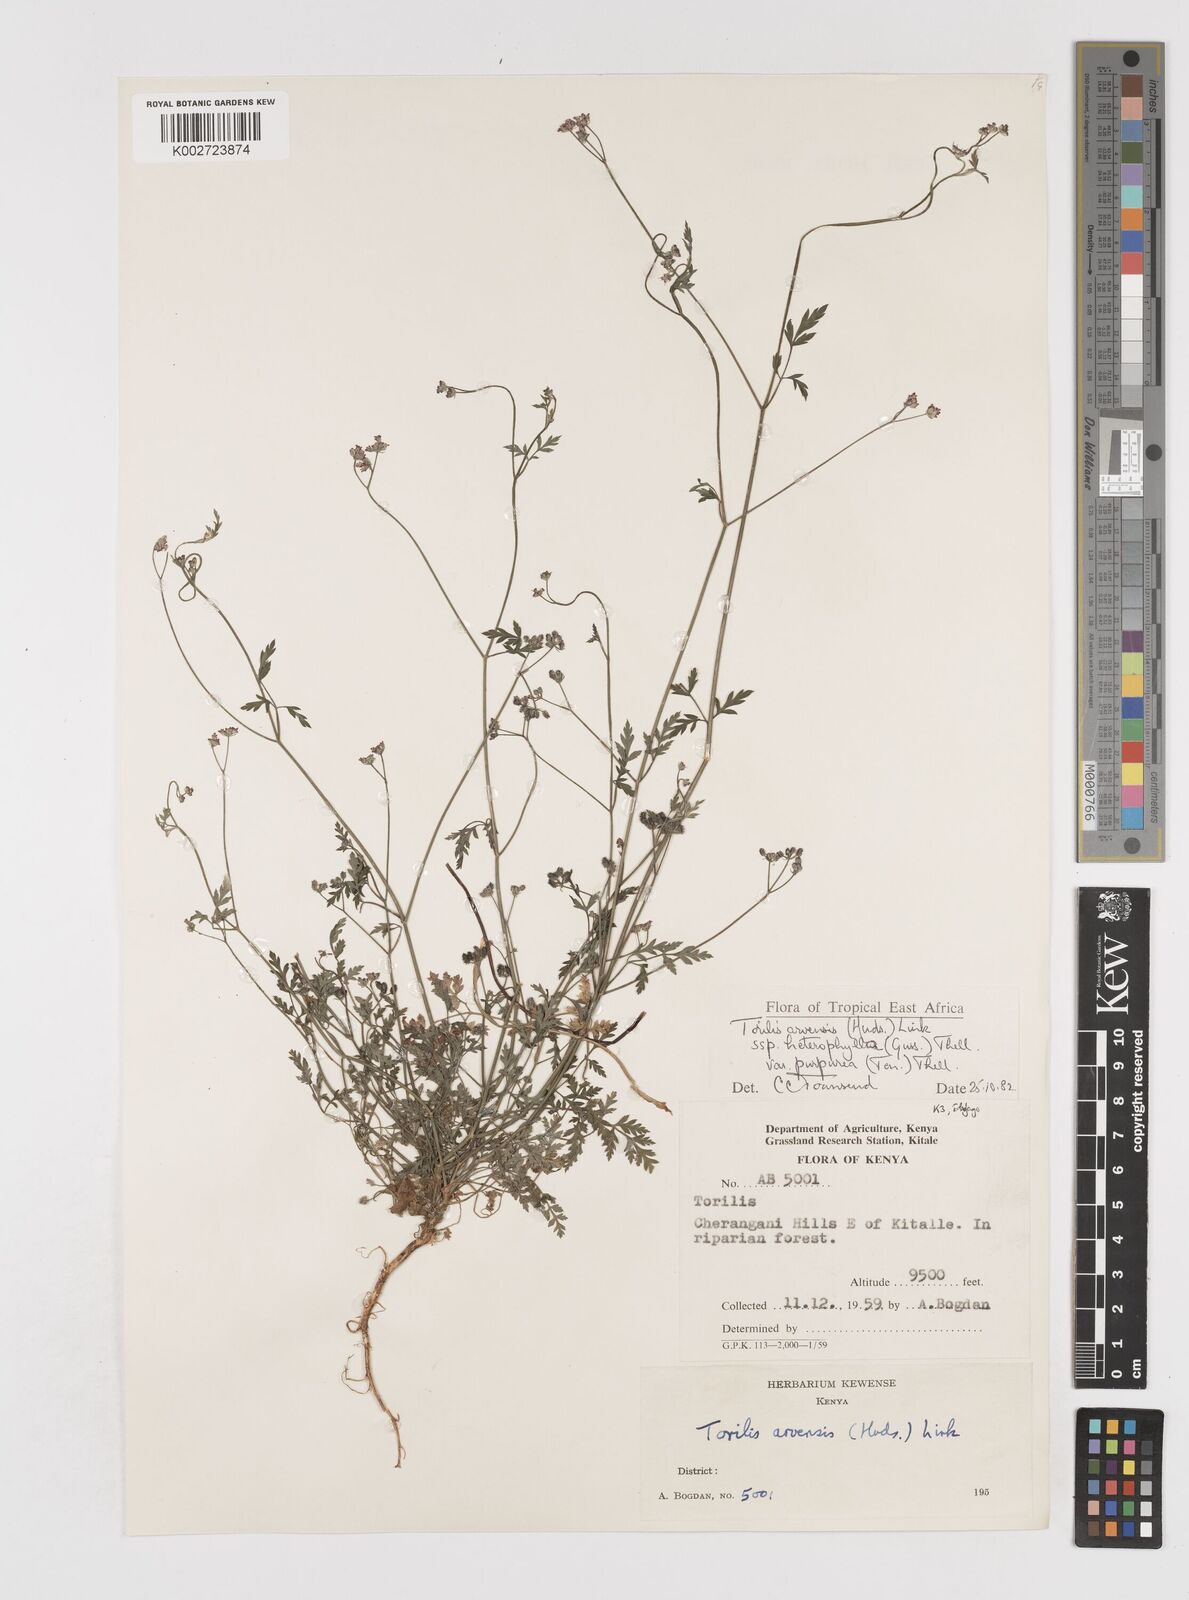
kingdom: Plantae
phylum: Tracheophyta
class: Magnoliopsida
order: Apiales
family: Apiaceae
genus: Torilis
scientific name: Torilis arvensis
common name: Spreading hedge-parsley
